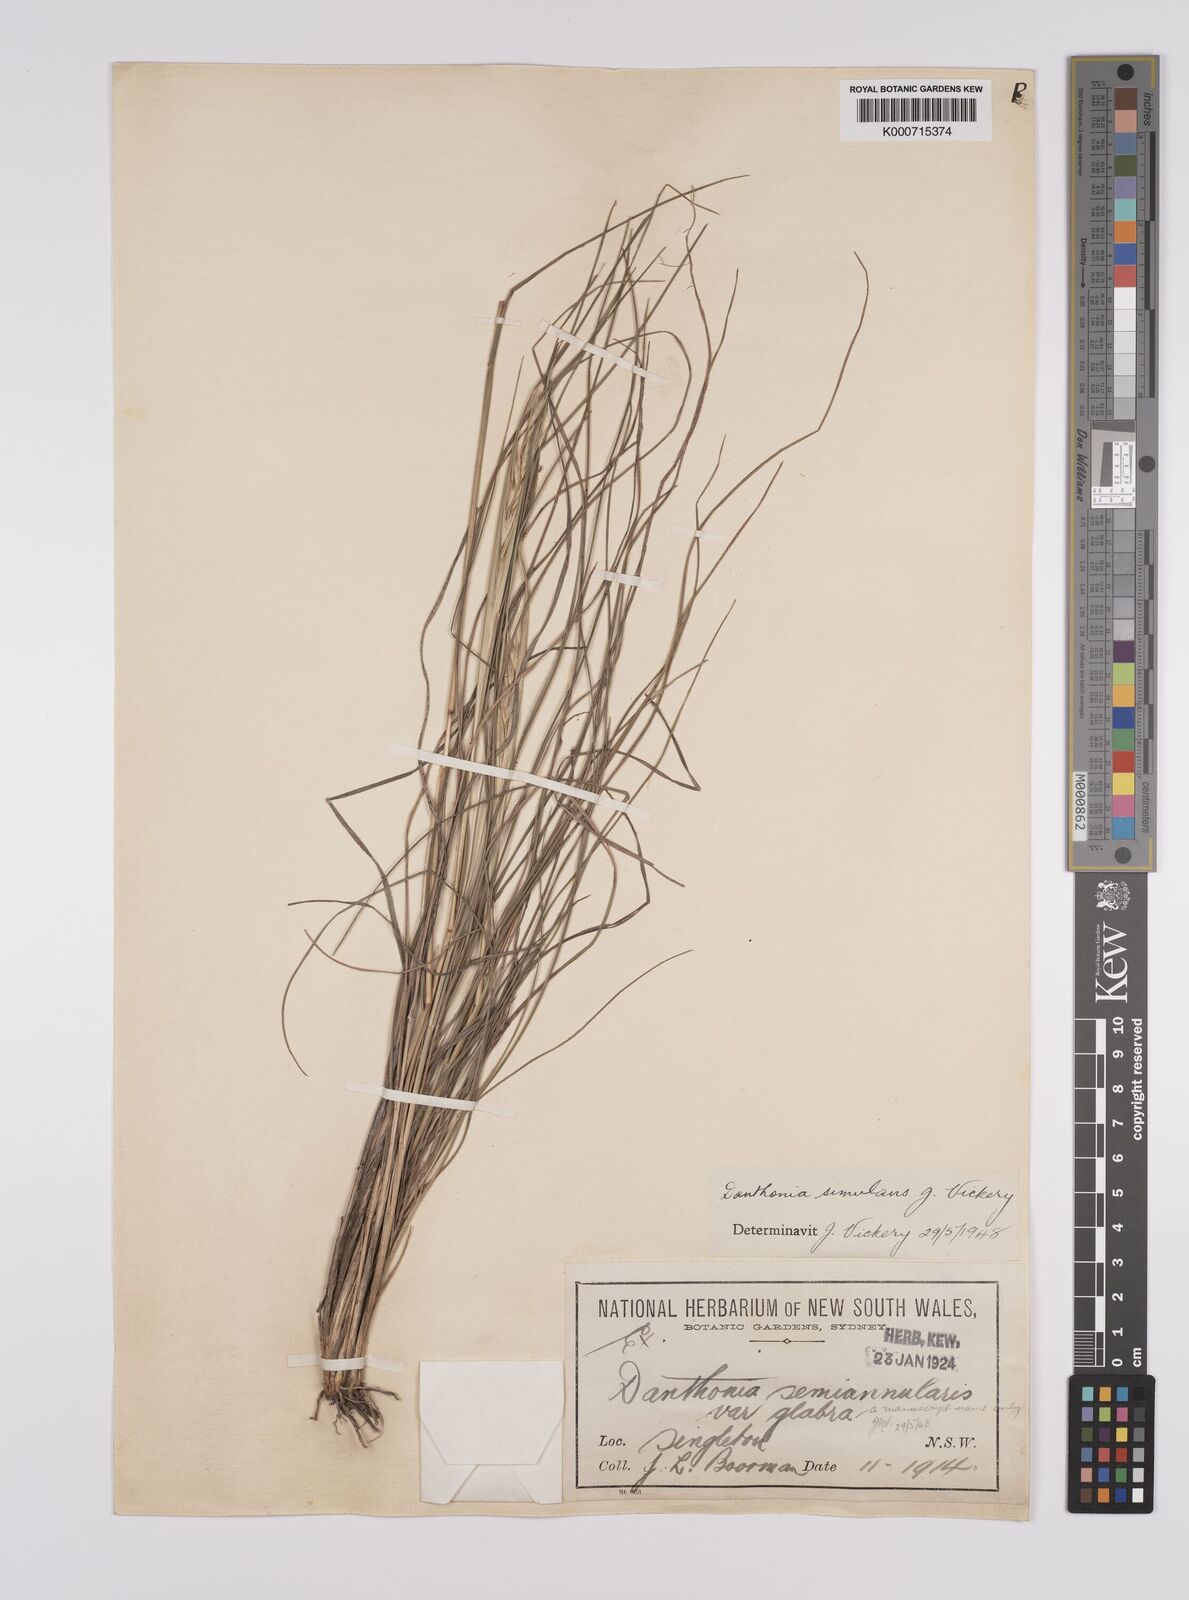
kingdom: Plantae
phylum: Tracheophyta
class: Liliopsida
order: Poales
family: Poaceae
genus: Rytidosperma
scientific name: Rytidosperma bipartitum
